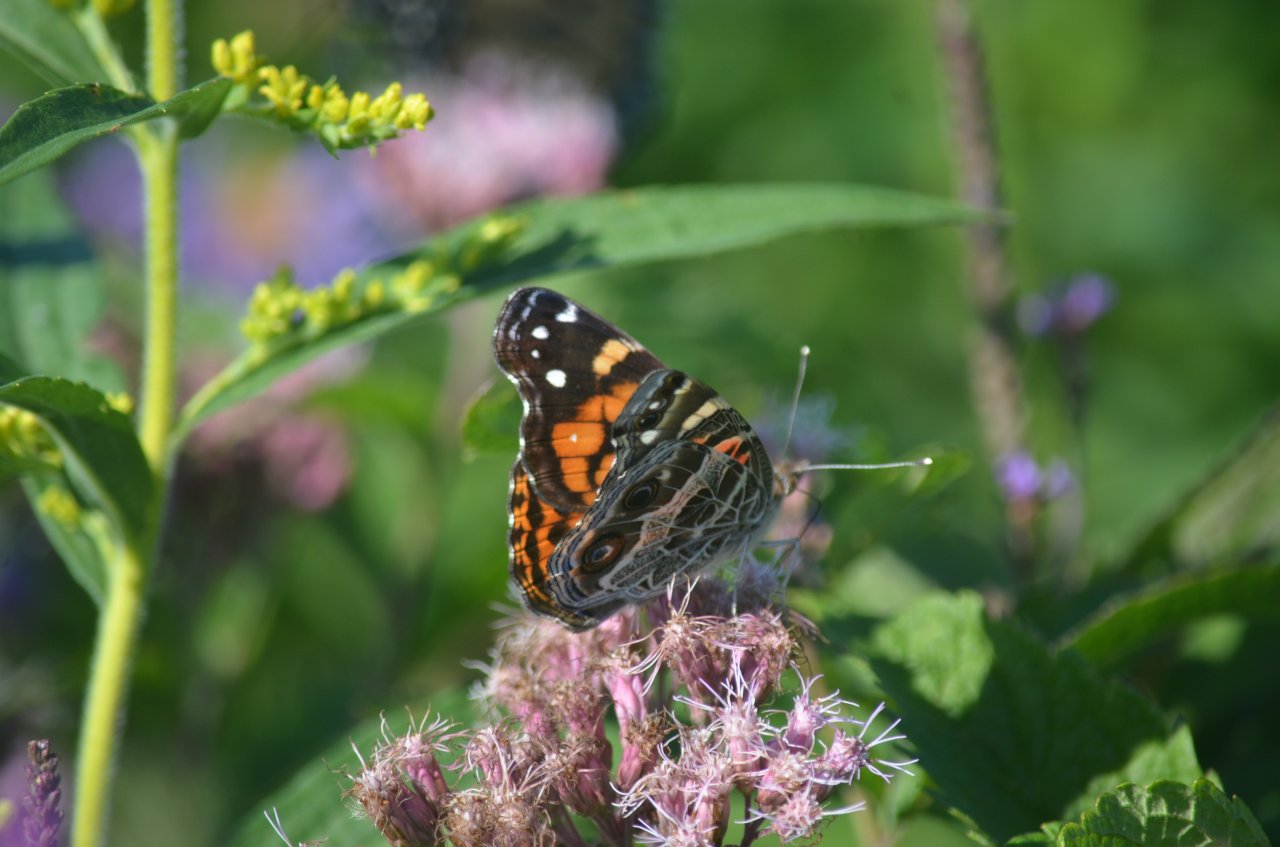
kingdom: Animalia
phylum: Arthropoda
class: Insecta
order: Lepidoptera
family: Nymphalidae
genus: Vanessa
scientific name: Vanessa virginiensis
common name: American Lady
